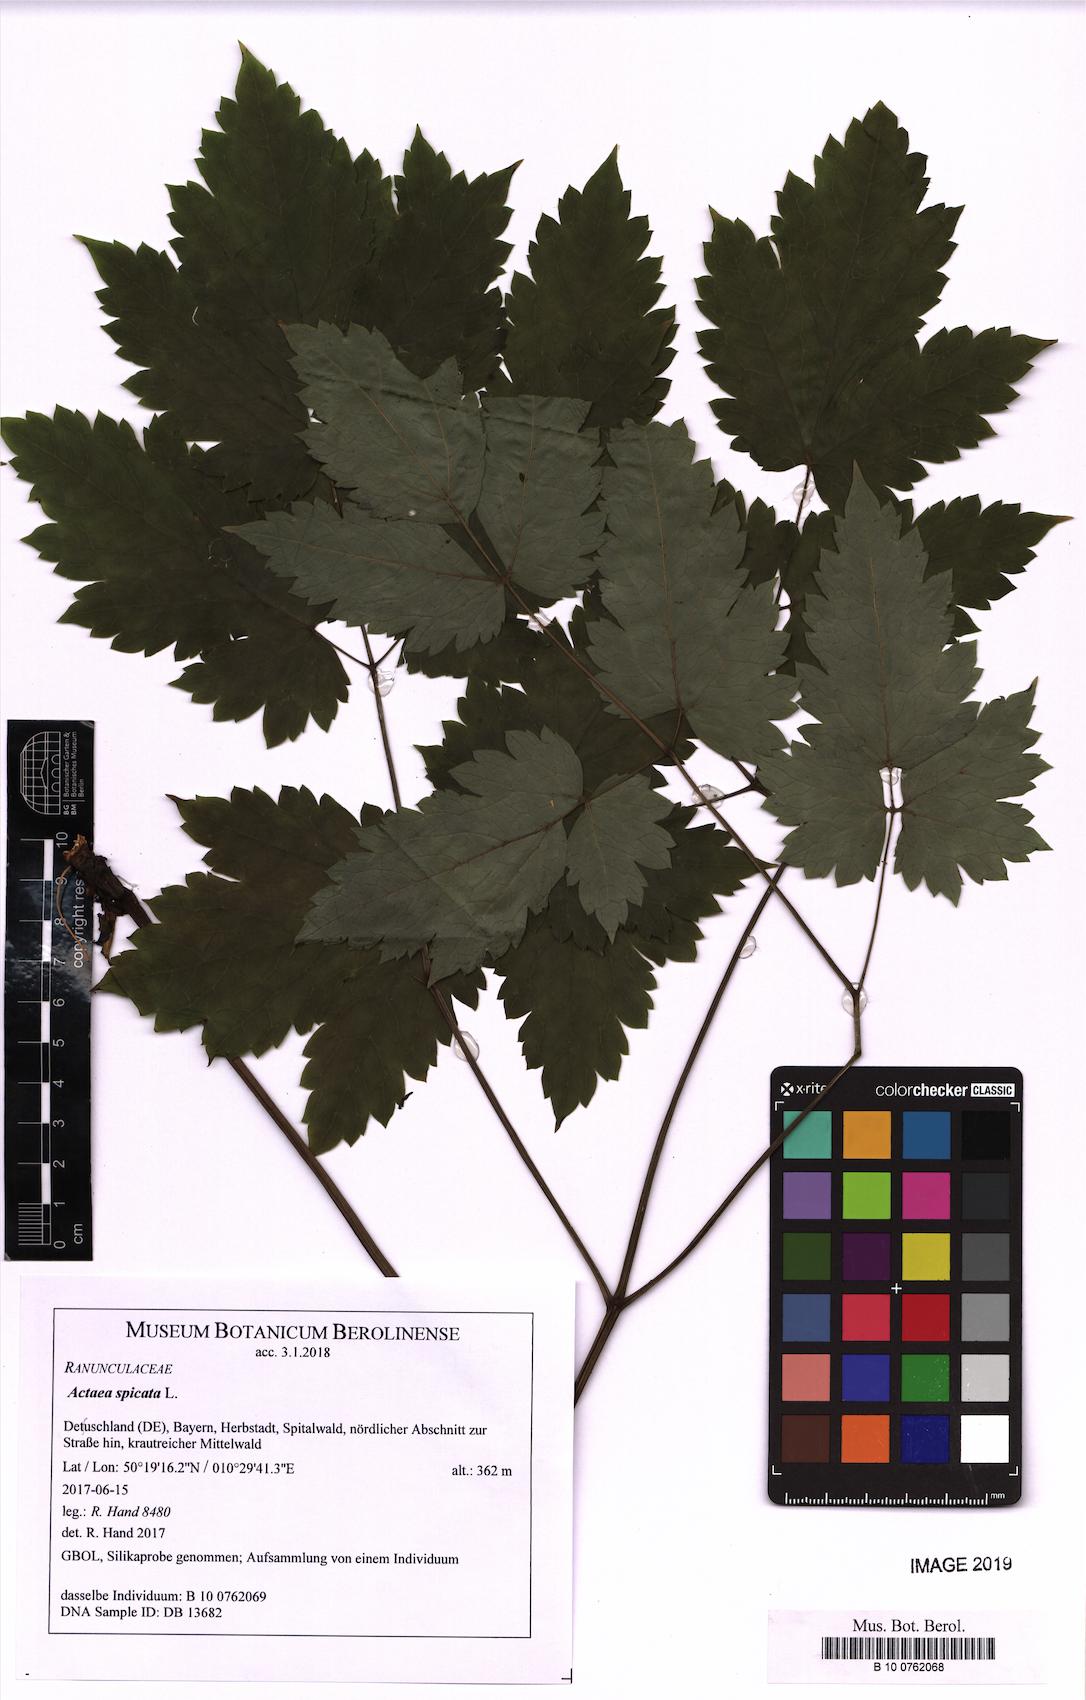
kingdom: Plantae
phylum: Tracheophyta
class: Magnoliopsida
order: Ranunculales
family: Ranunculaceae
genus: Actaea
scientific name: Actaea spicata
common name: Baneberry
